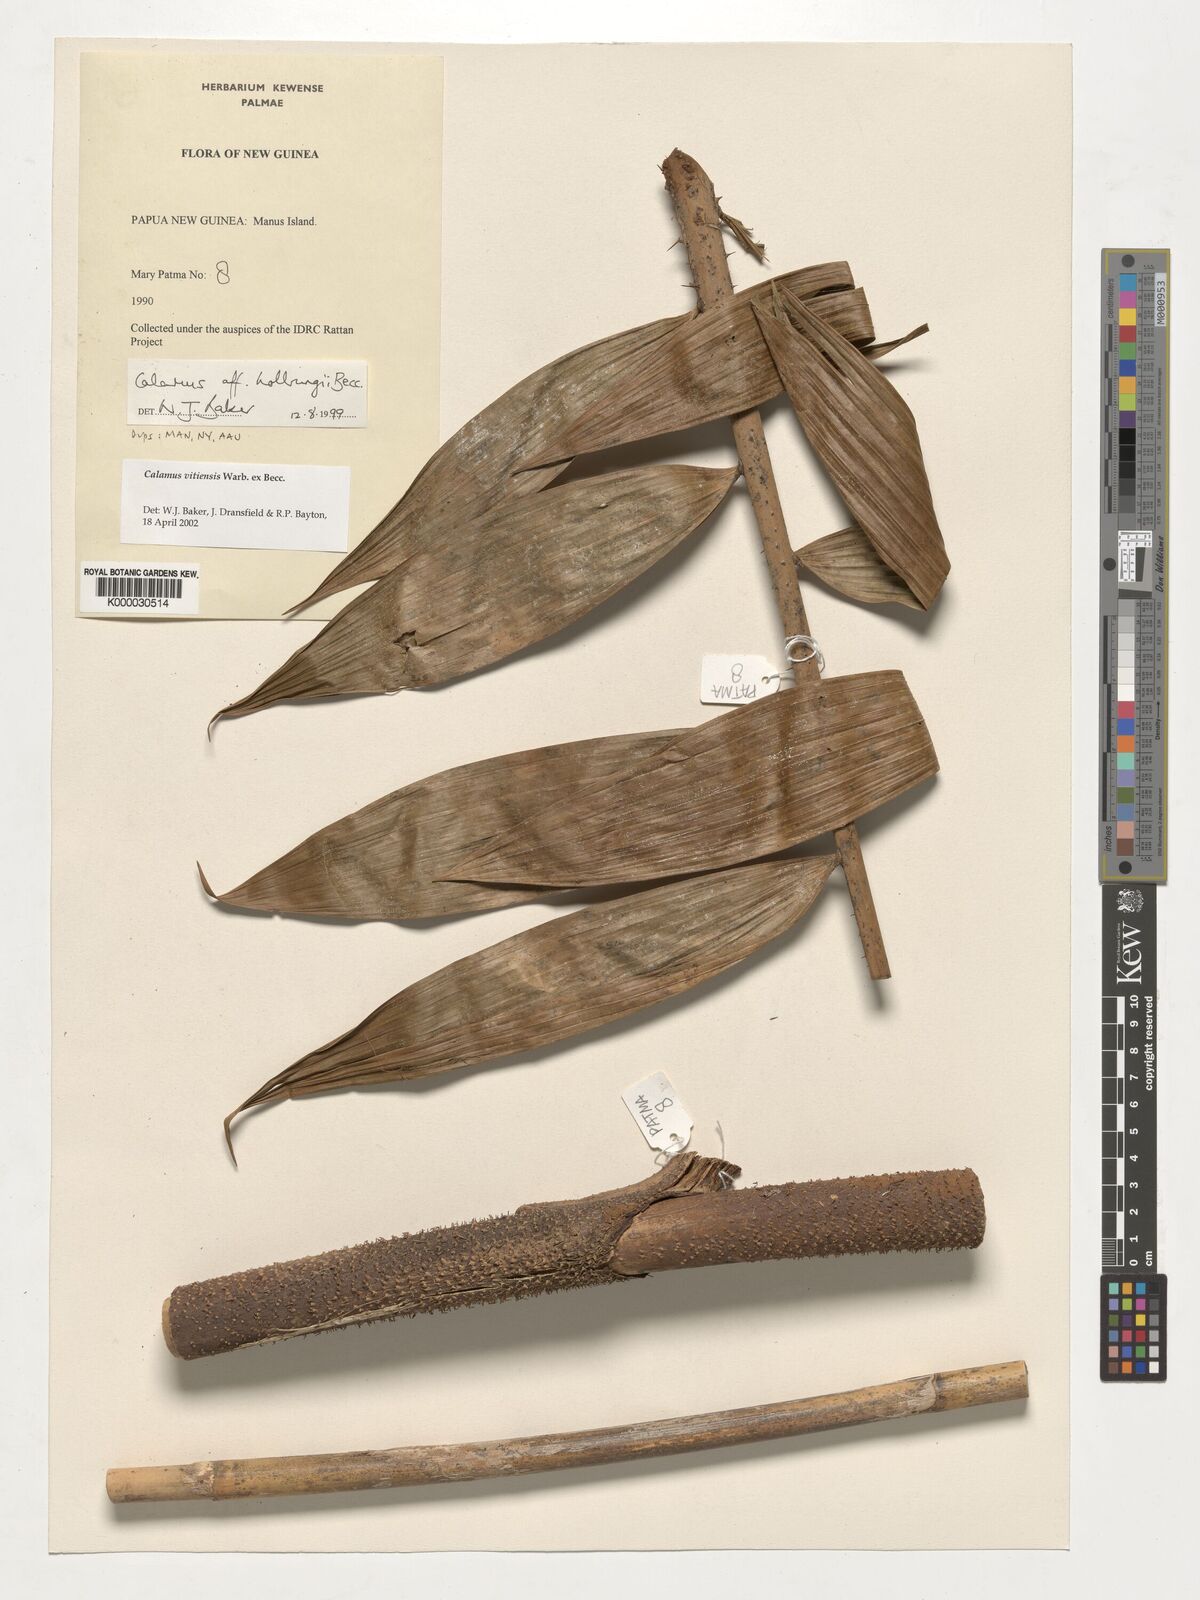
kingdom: Plantae
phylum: Tracheophyta
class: Liliopsida
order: Arecales
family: Arecaceae
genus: Calamus
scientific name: Calamus vitiensis
